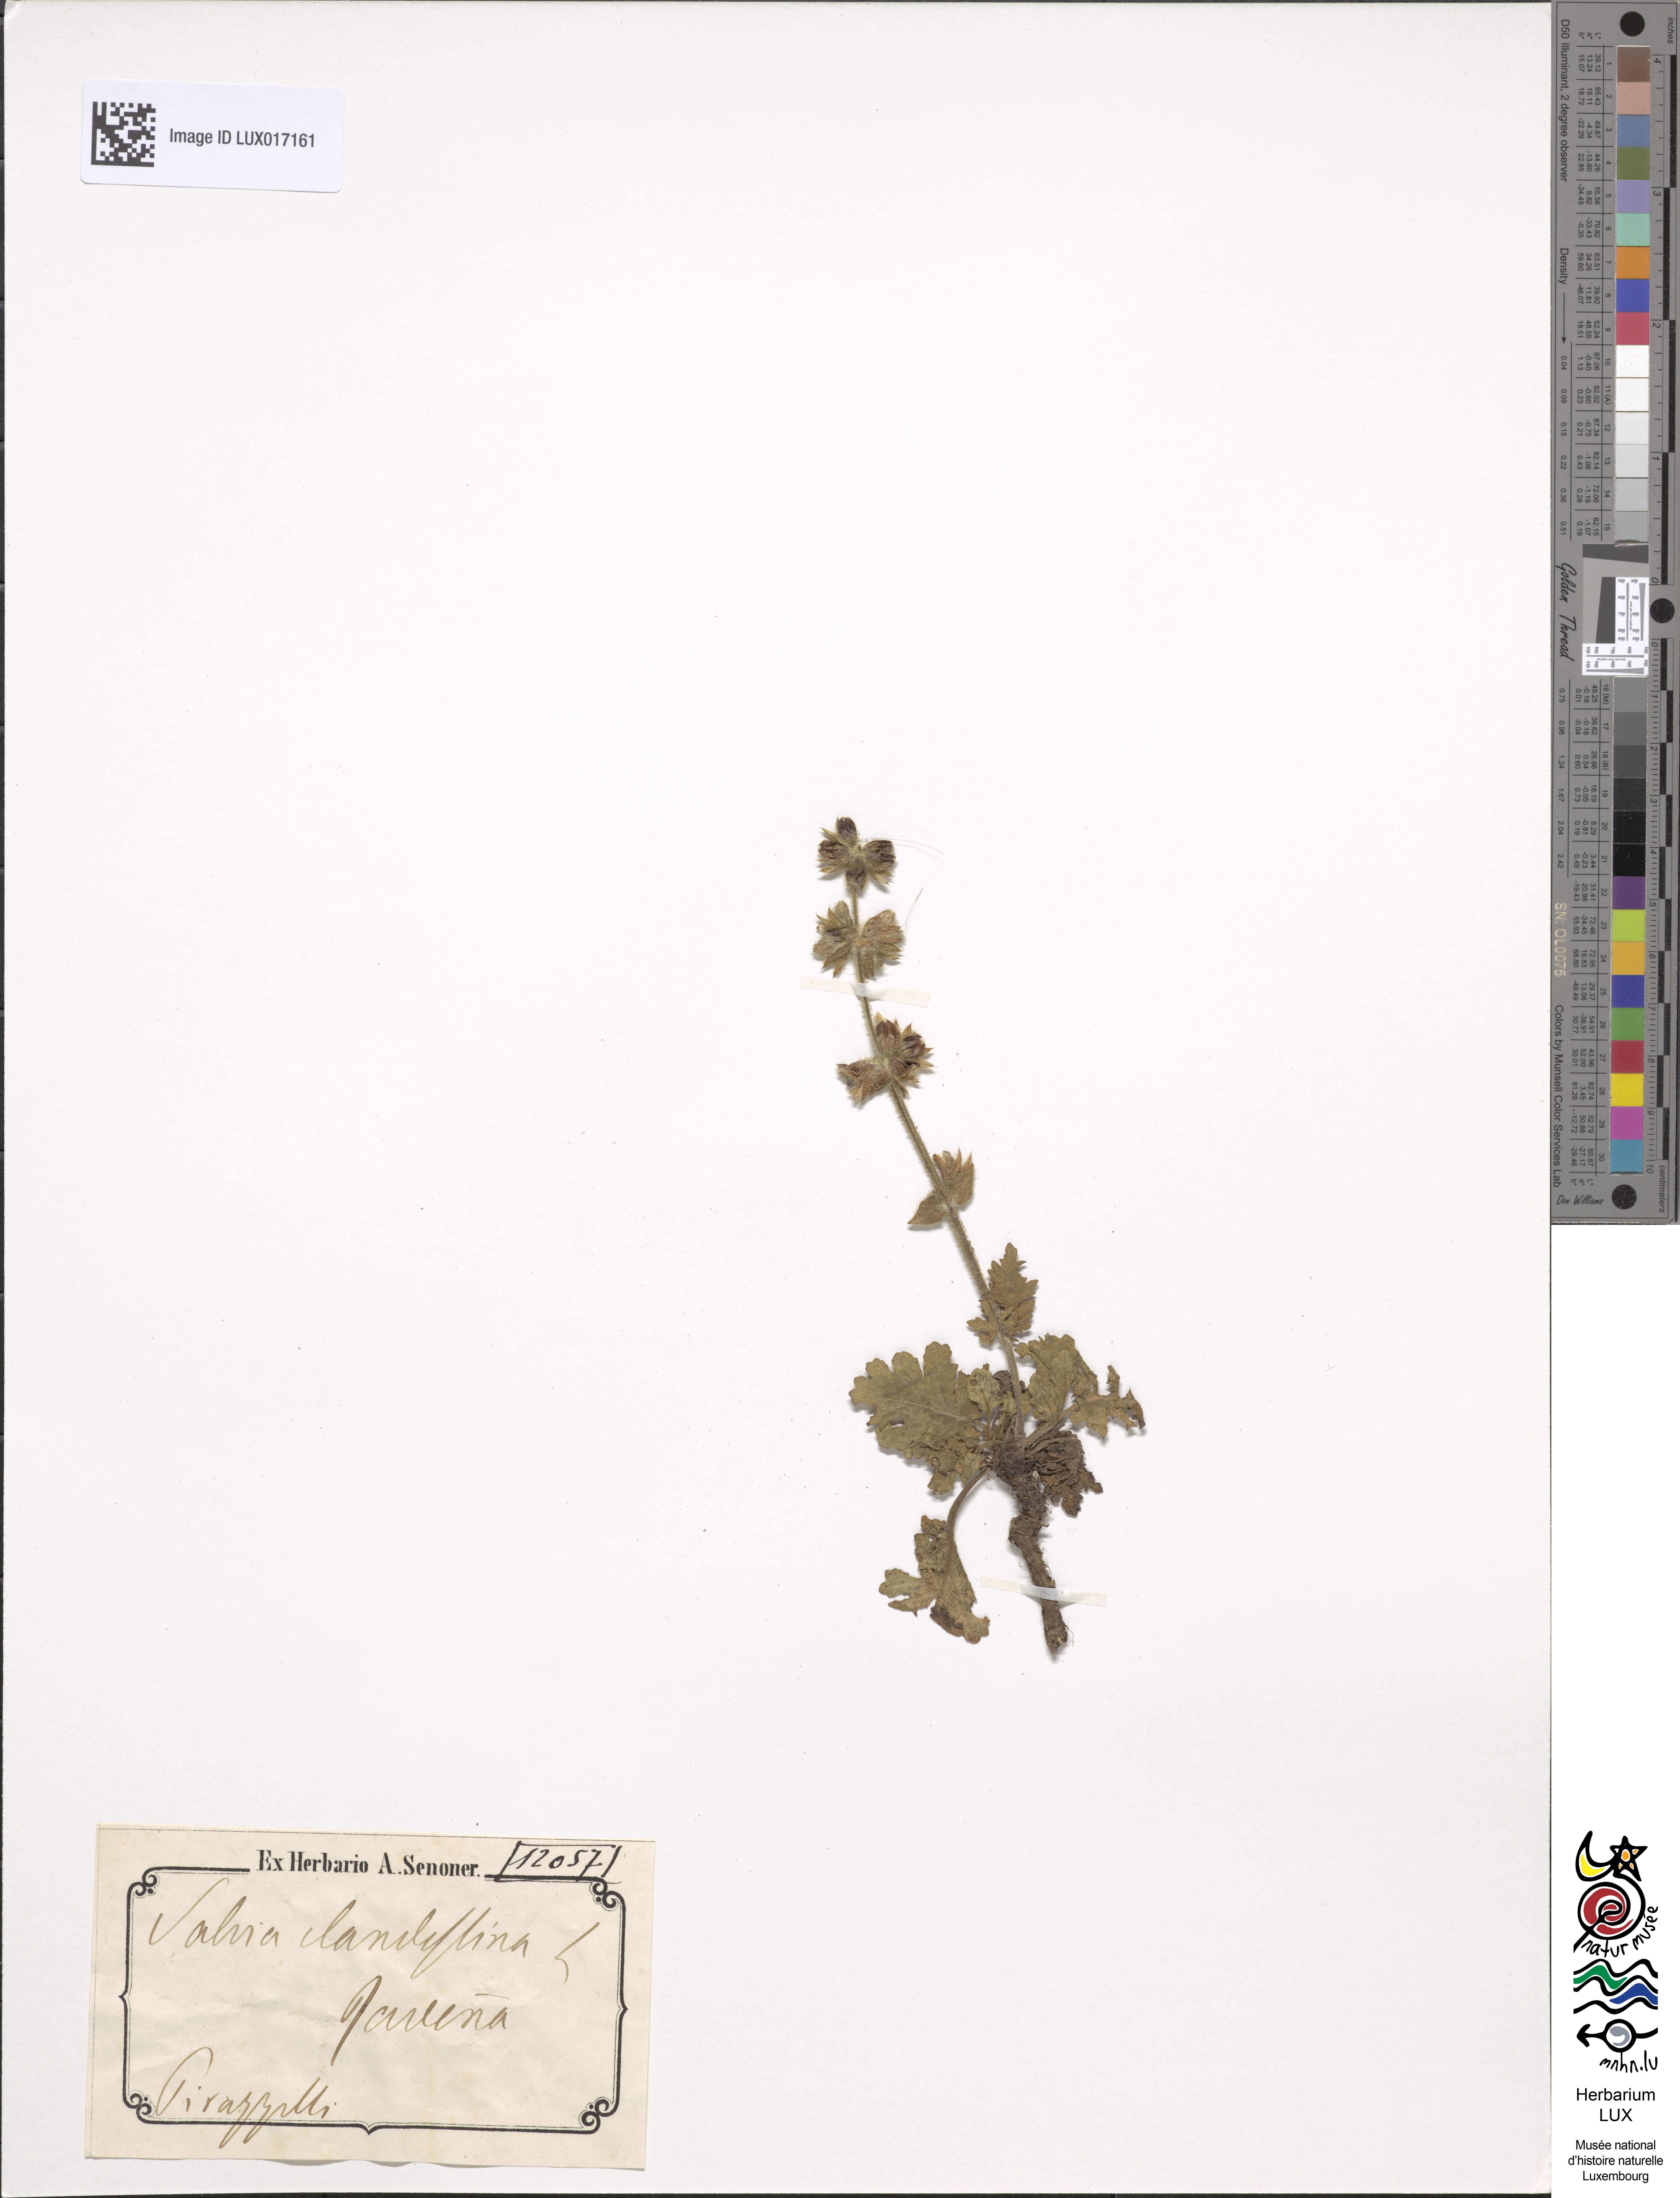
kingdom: Plantae
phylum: Tracheophyta
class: Magnoliopsida
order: Lamiales
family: Lamiaceae
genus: Salvia
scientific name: Salvia verbenaca
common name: Wild clary
